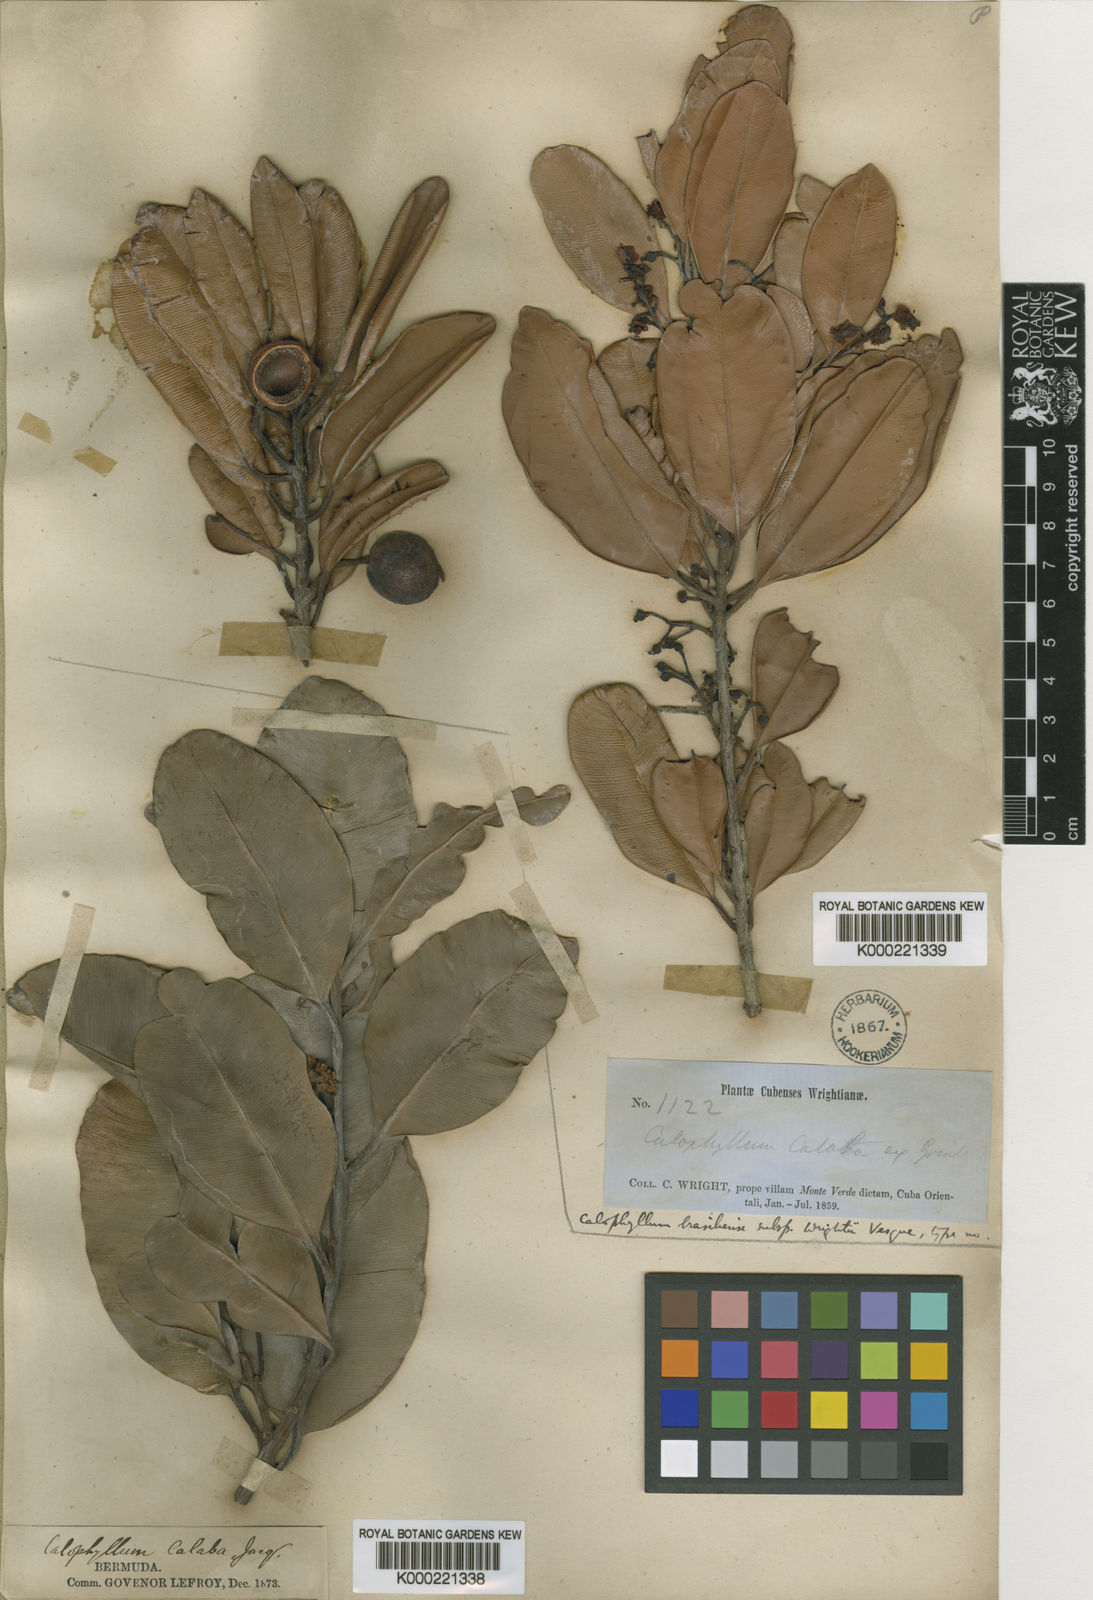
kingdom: Plantae
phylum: Tracheophyta
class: Magnoliopsida
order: Malpighiales
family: Calophyllaceae
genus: Calophyllum
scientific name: Calophyllum antillanum
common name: Santa maria-tree
